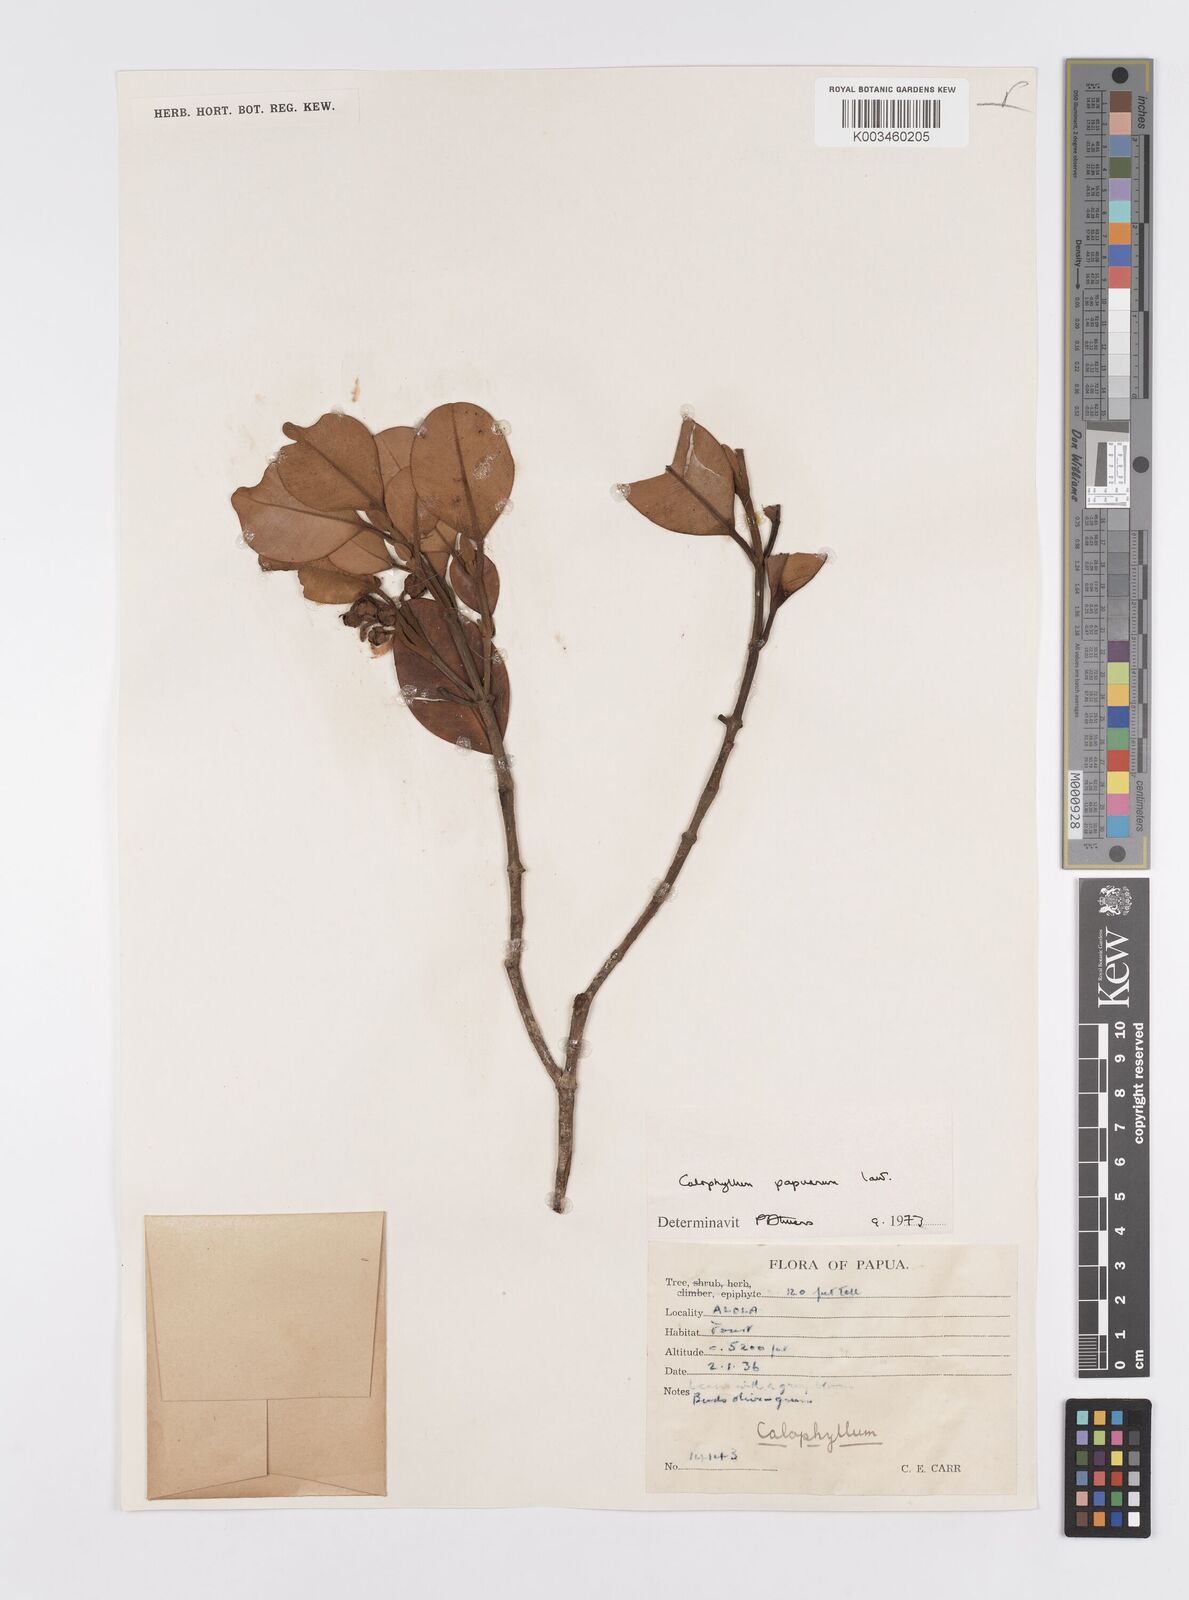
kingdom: Plantae
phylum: Tracheophyta
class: Magnoliopsida
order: Malpighiales
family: Calophyllaceae
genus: Calophyllum
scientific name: Calophyllum papuanum
